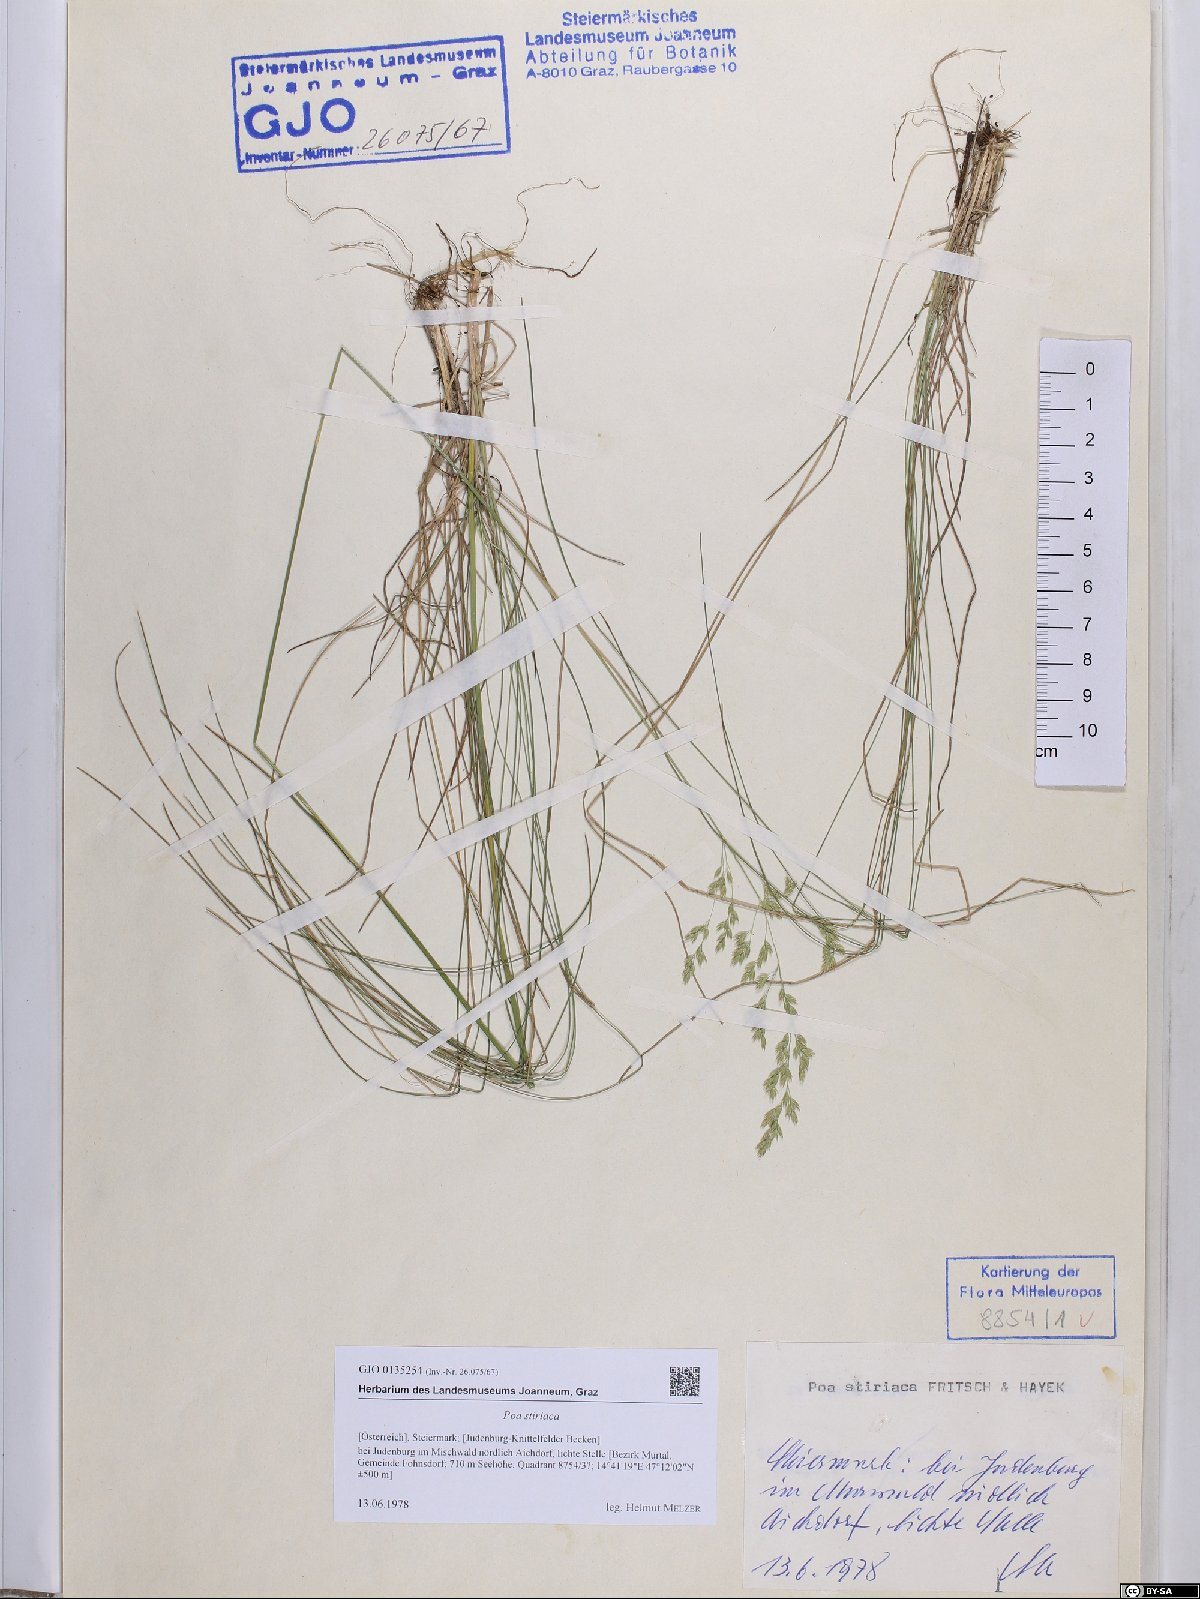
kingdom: Plantae
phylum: Tracheophyta
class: Liliopsida
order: Poales
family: Poaceae
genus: Poa
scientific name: Poa stiriaca
